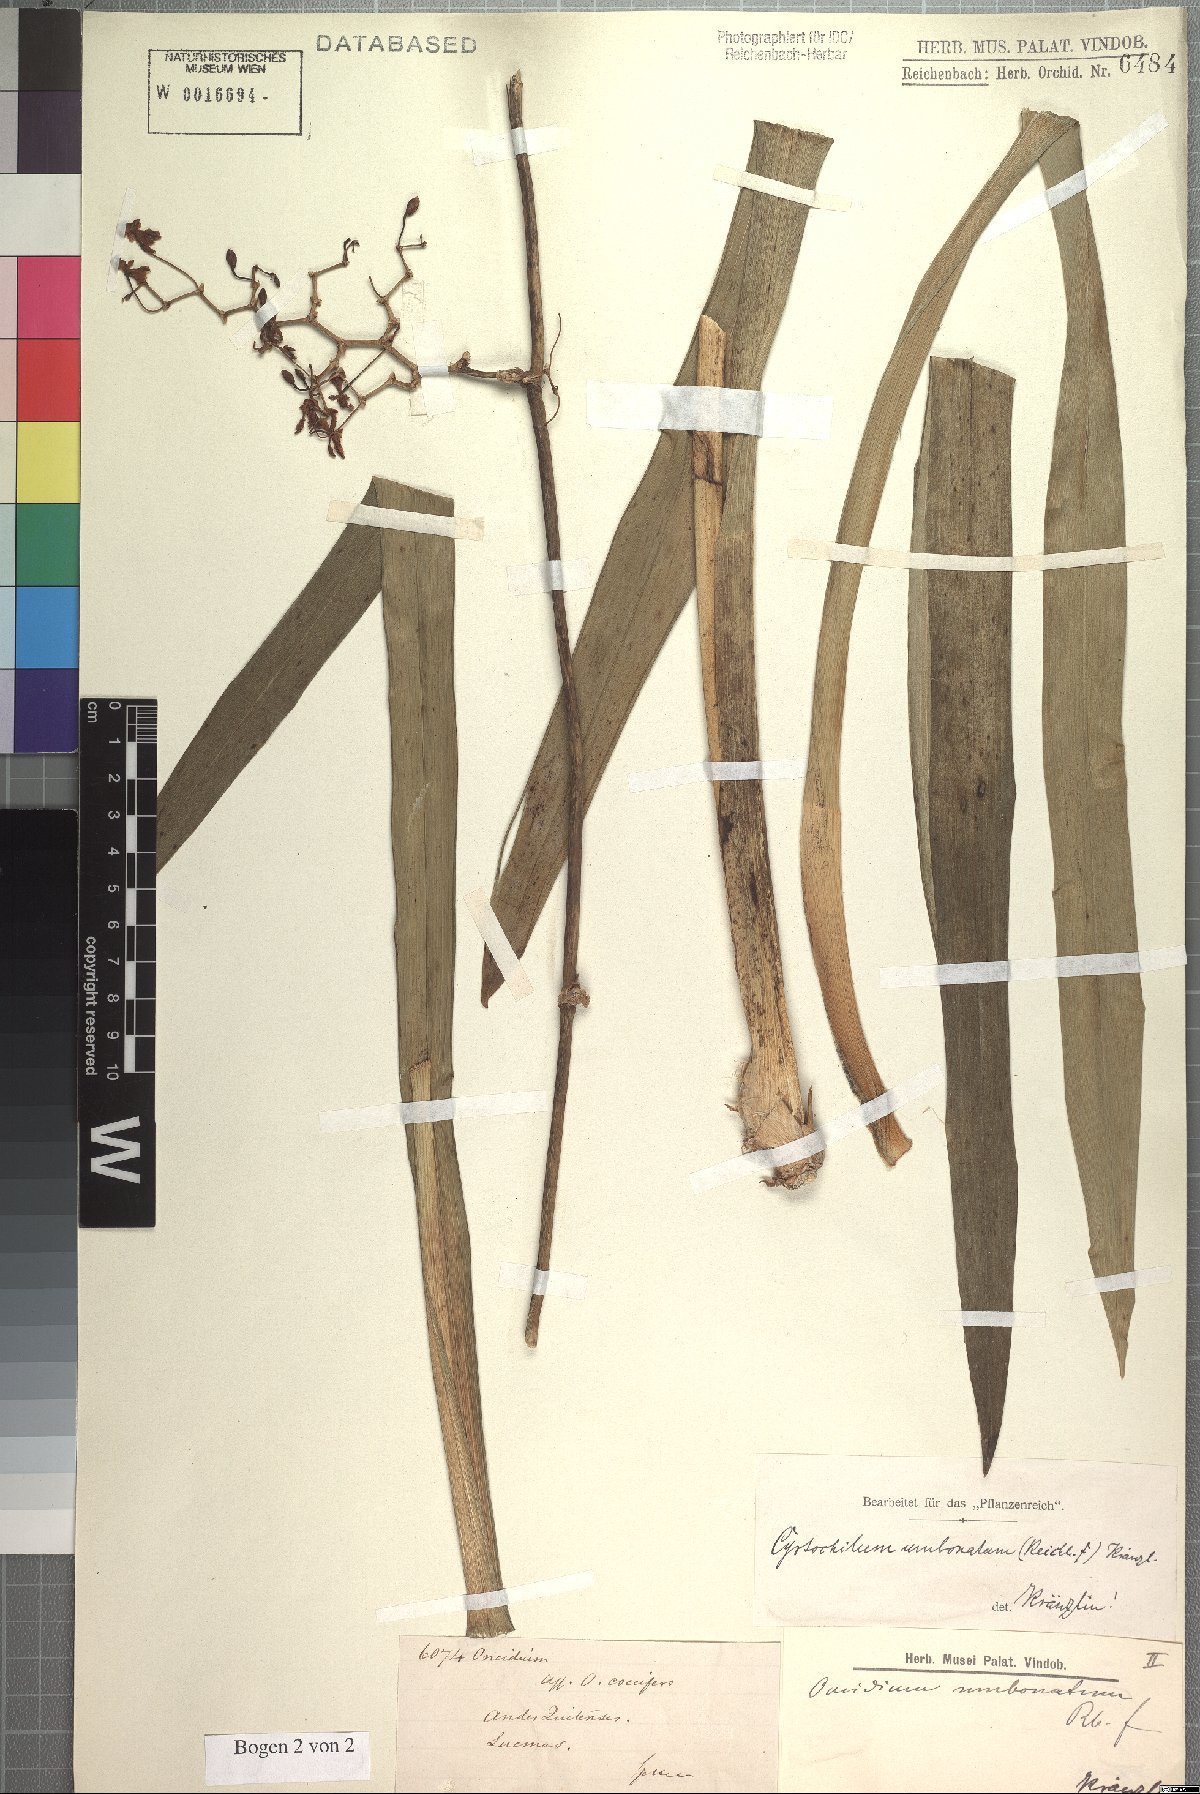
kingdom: Plantae
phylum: Tracheophyta
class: Liliopsida
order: Asparagales
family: Orchidaceae
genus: Cyrtochilum
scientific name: Cyrtochilum umbonatum
